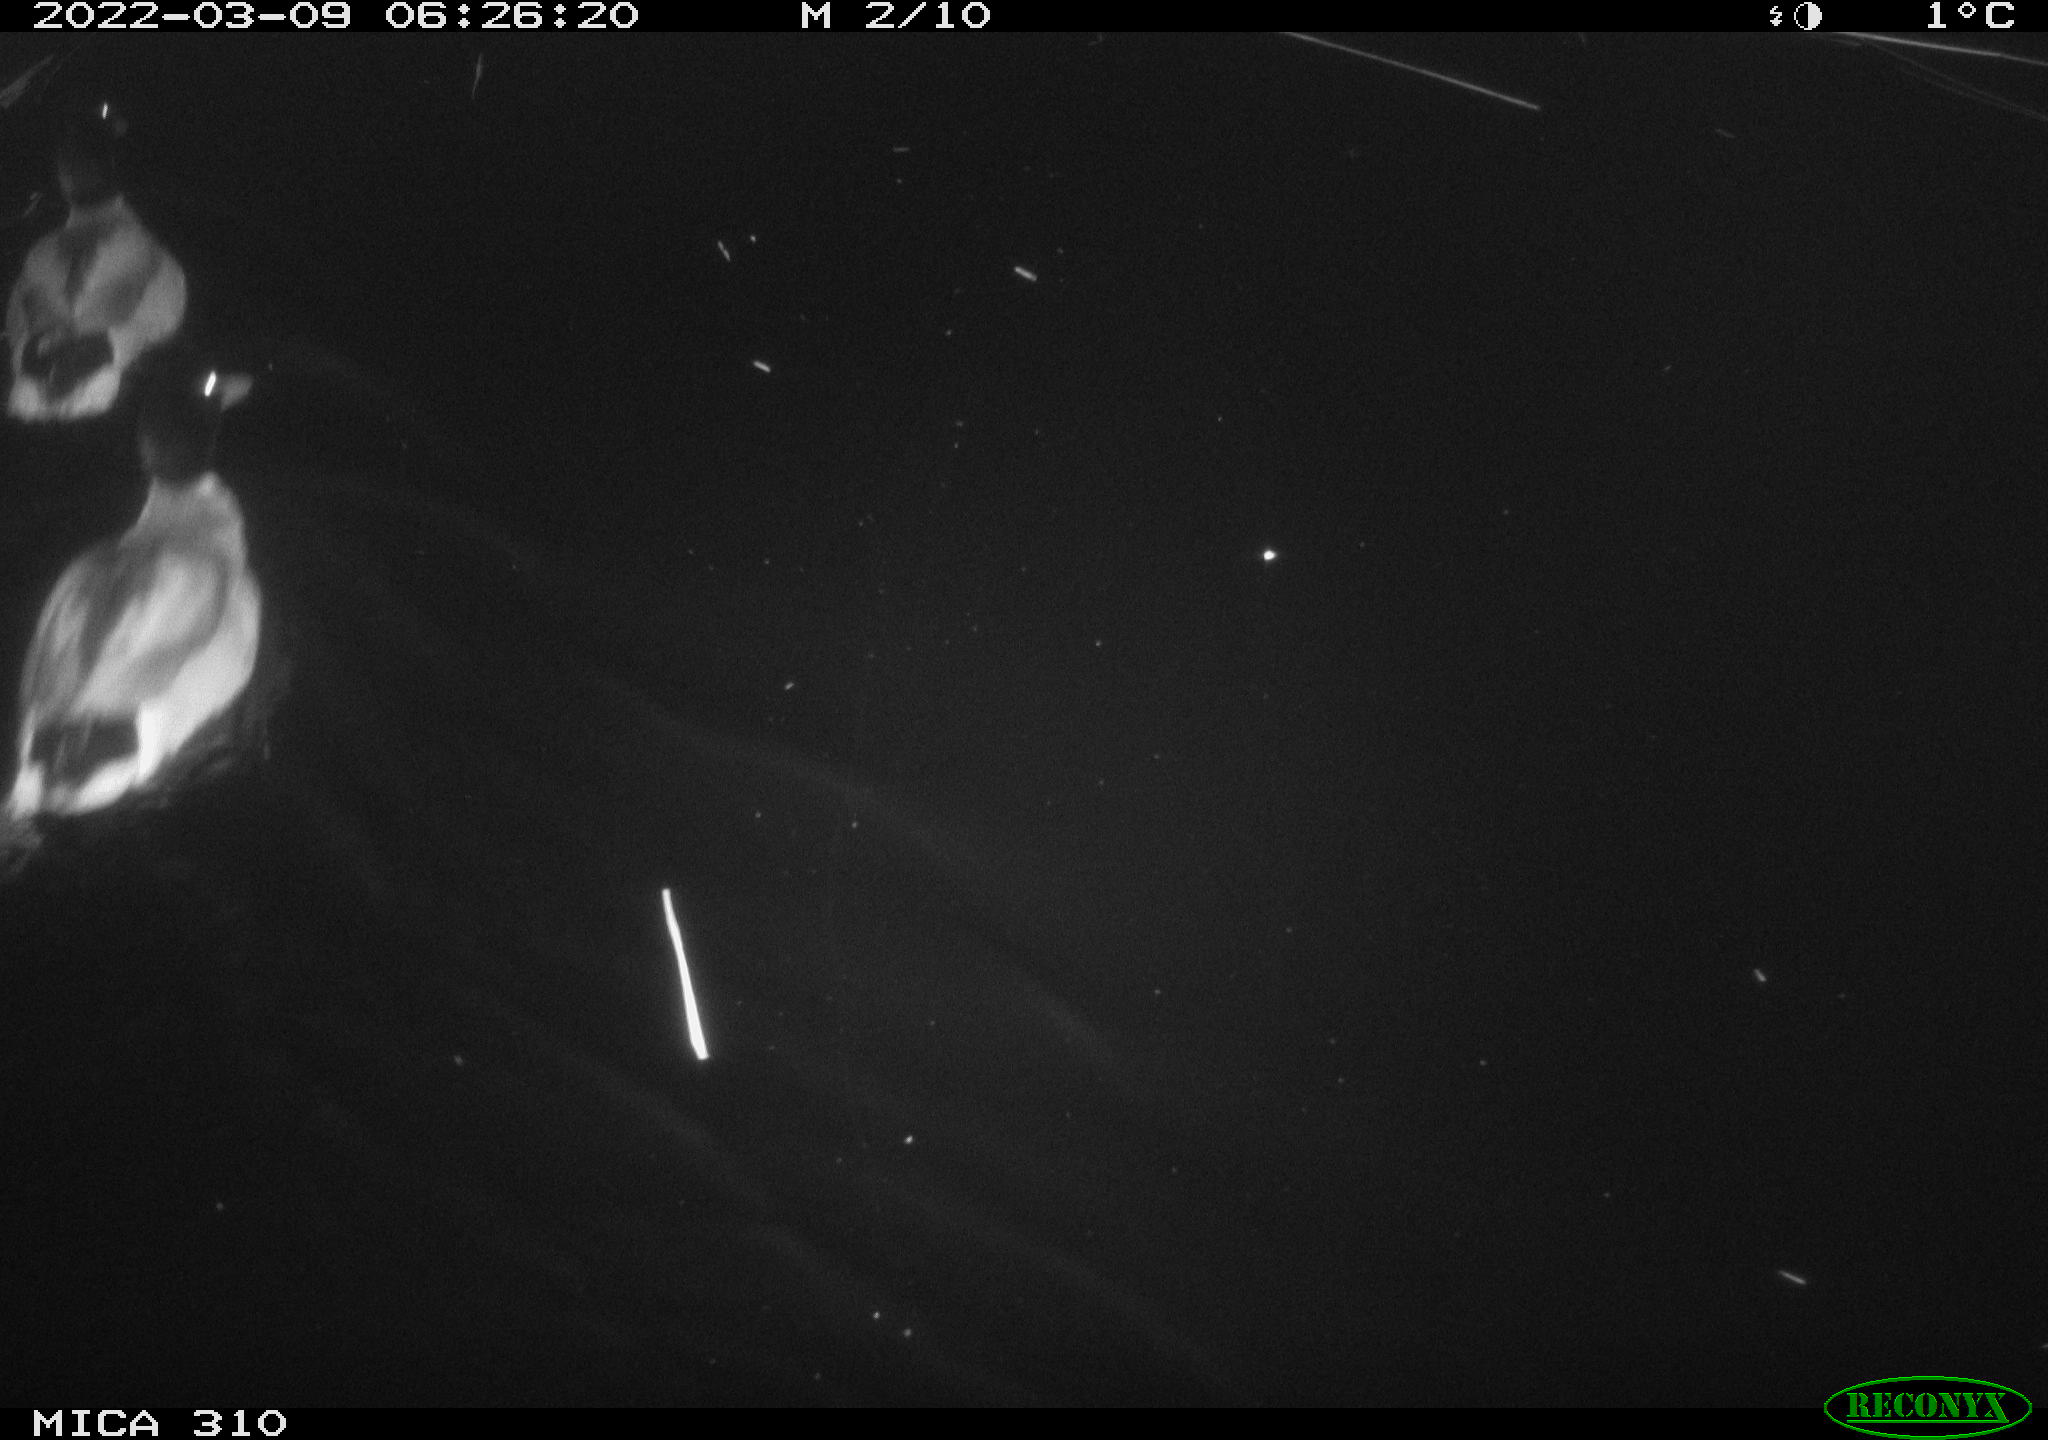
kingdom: Animalia
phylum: Chordata
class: Aves
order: Anseriformes
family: Anatidae
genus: Anas
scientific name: Anas platyrhynchos
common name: Mallard
